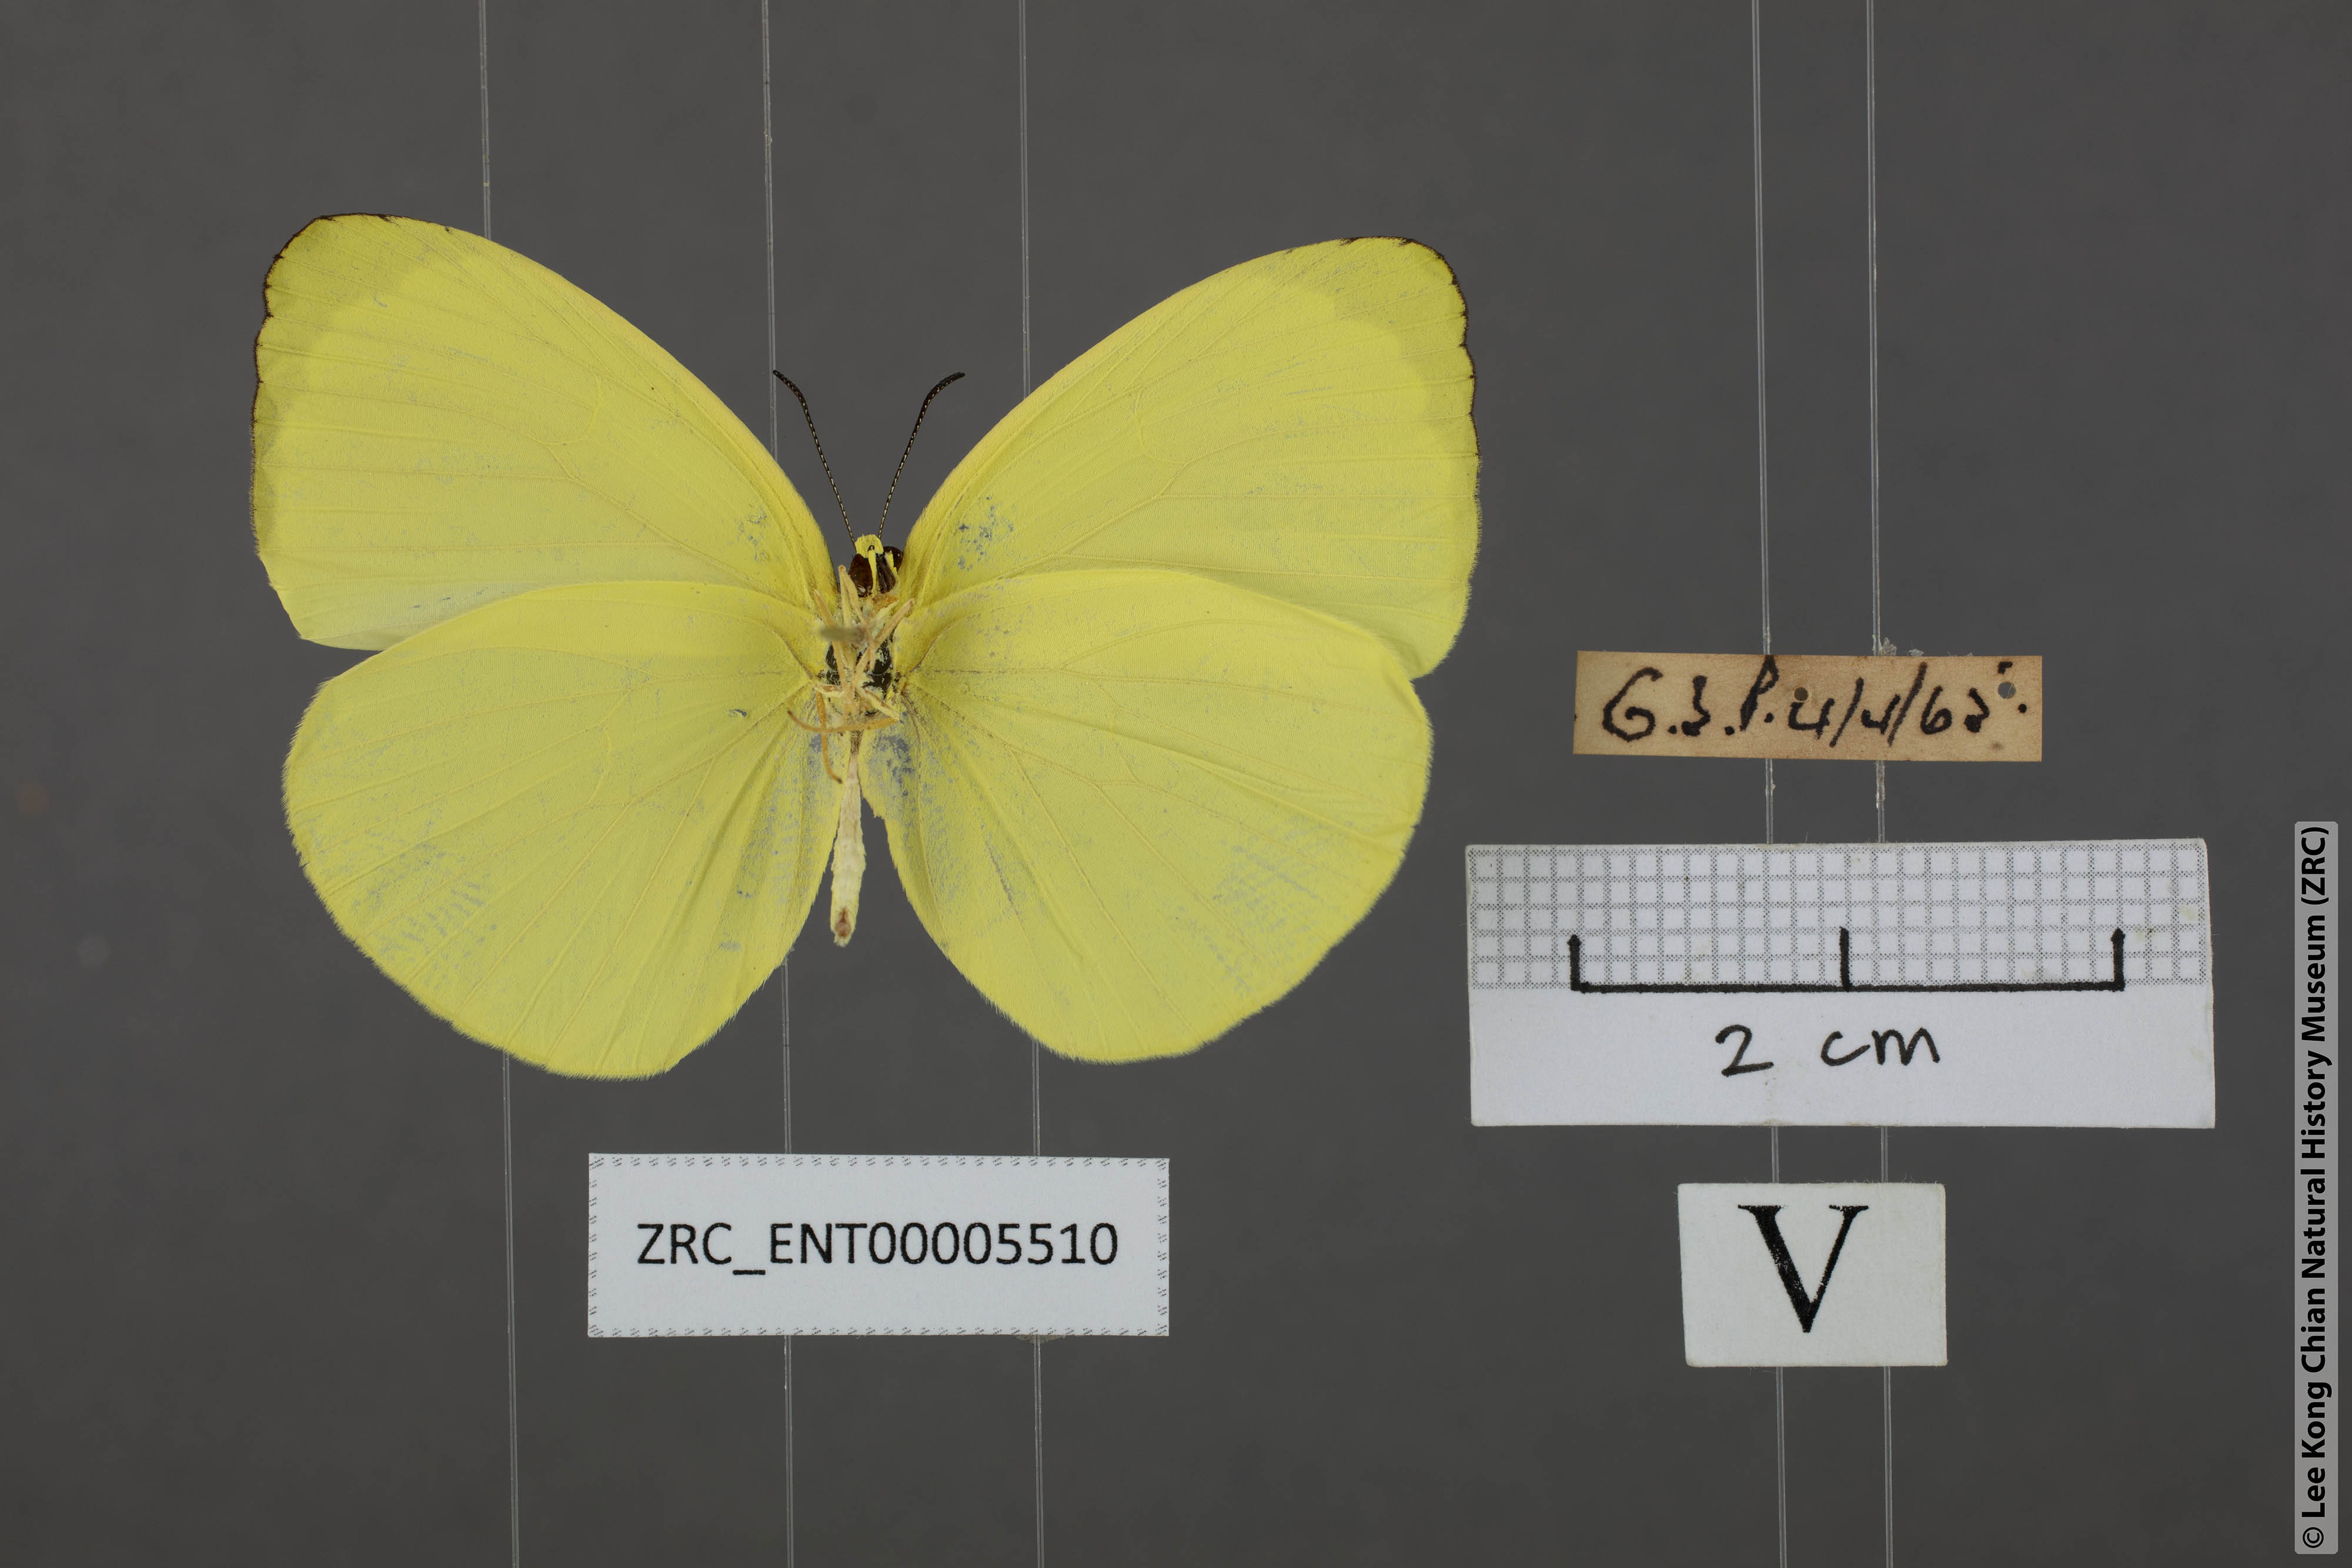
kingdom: Animalia
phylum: Arthropoda
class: Insecta
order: Lepidoptera
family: Pieridae
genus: Gandaca
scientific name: Gandaca harina
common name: Tree yellow
